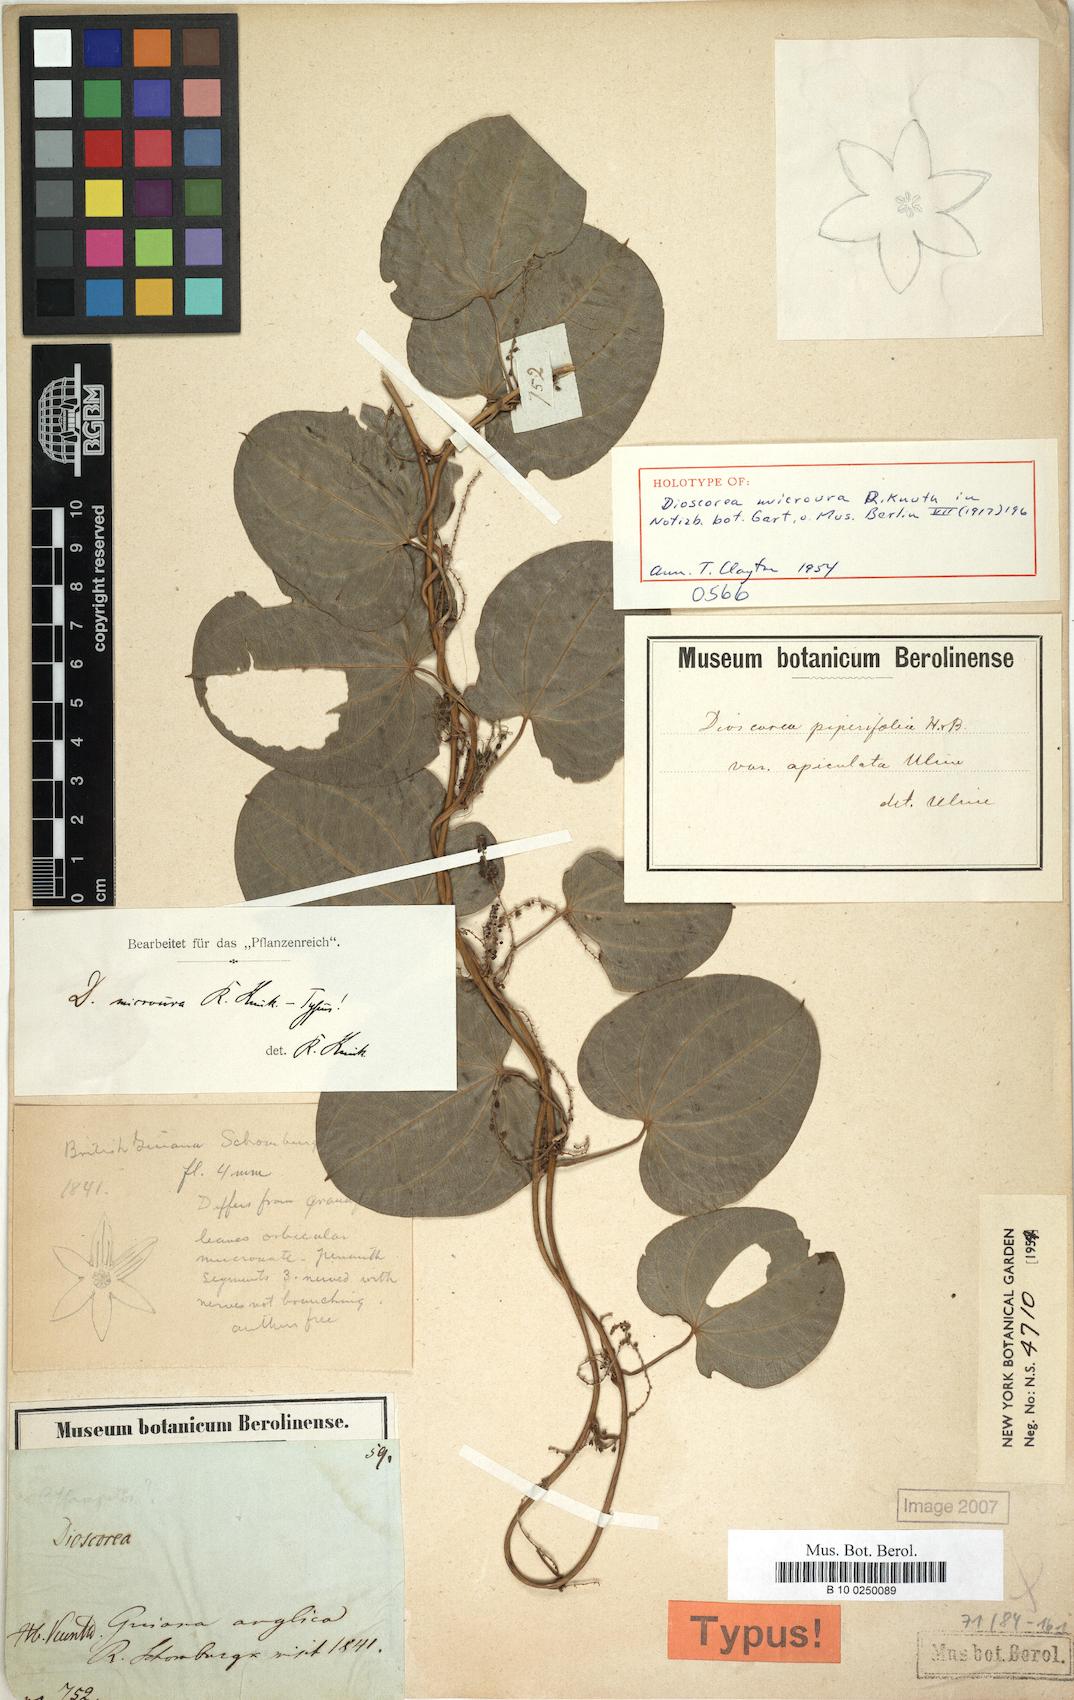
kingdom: Plantae
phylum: Tracheophyta
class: Liliopsida
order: Dioscoreales
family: Dioscoreaceae
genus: Dioscorea
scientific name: Dioscorea microura
